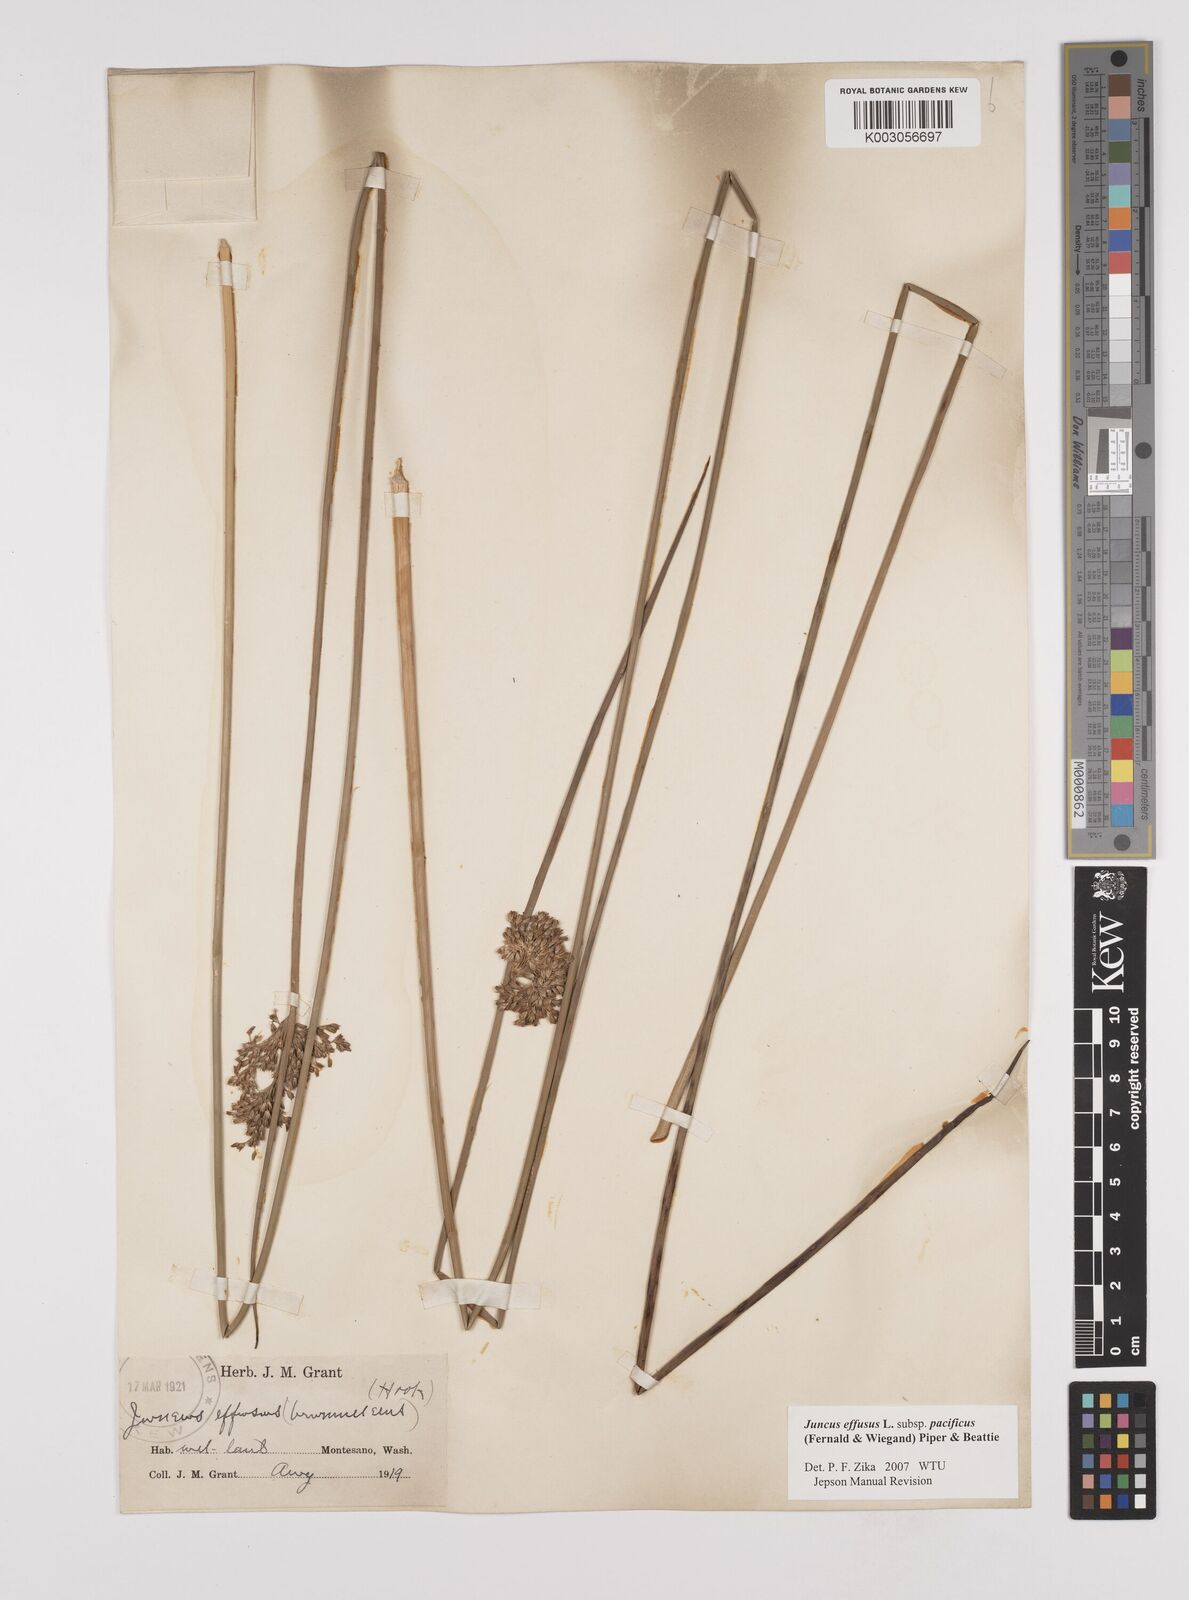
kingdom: Plantae
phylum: Tracheophyta
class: Liliopsida
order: Poales
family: Juncaceae
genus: Juncus
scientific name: Juncus effusus
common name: Soft rush
